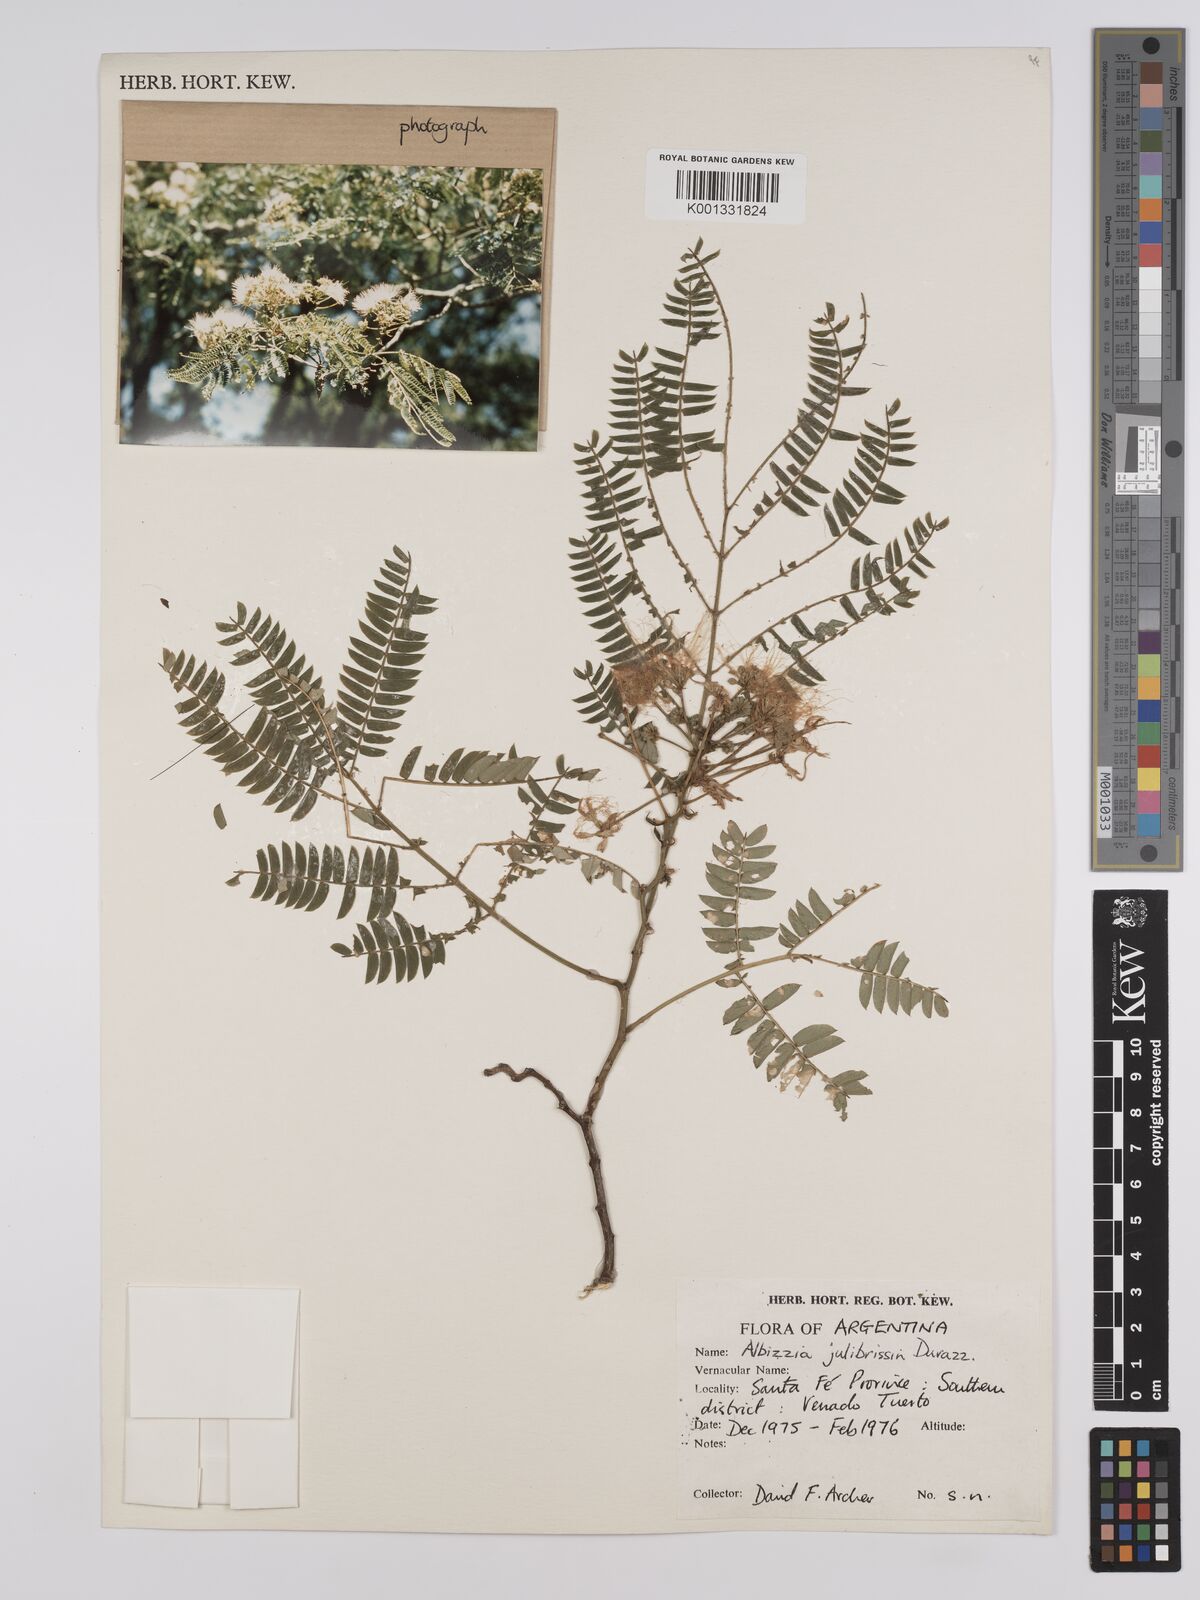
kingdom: Plantae
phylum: Tracheophyta
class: Magnoliopsida
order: Fabales
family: Fabaceae
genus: Albizia
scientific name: Albizia julibrissin
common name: Silktree
